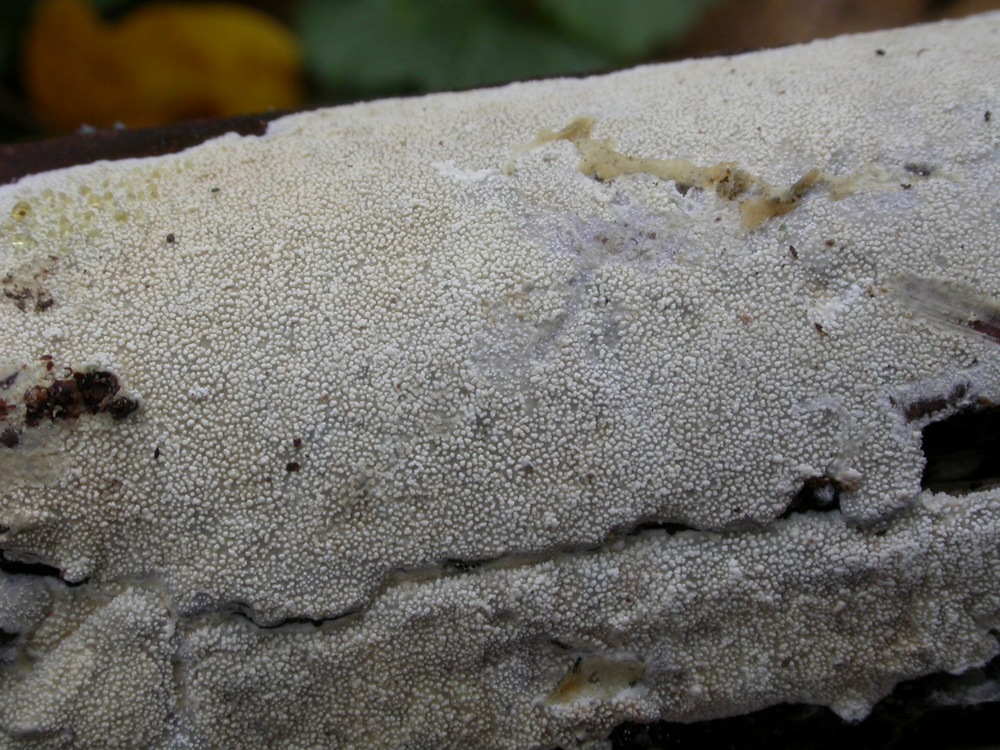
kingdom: Fungi
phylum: Basidiomycota
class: Agaricomycetes
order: Hymenochaetales
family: Schizoporaceae
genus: Xylodon
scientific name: Xylodon nesporii
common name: fintandet tandsvamp
